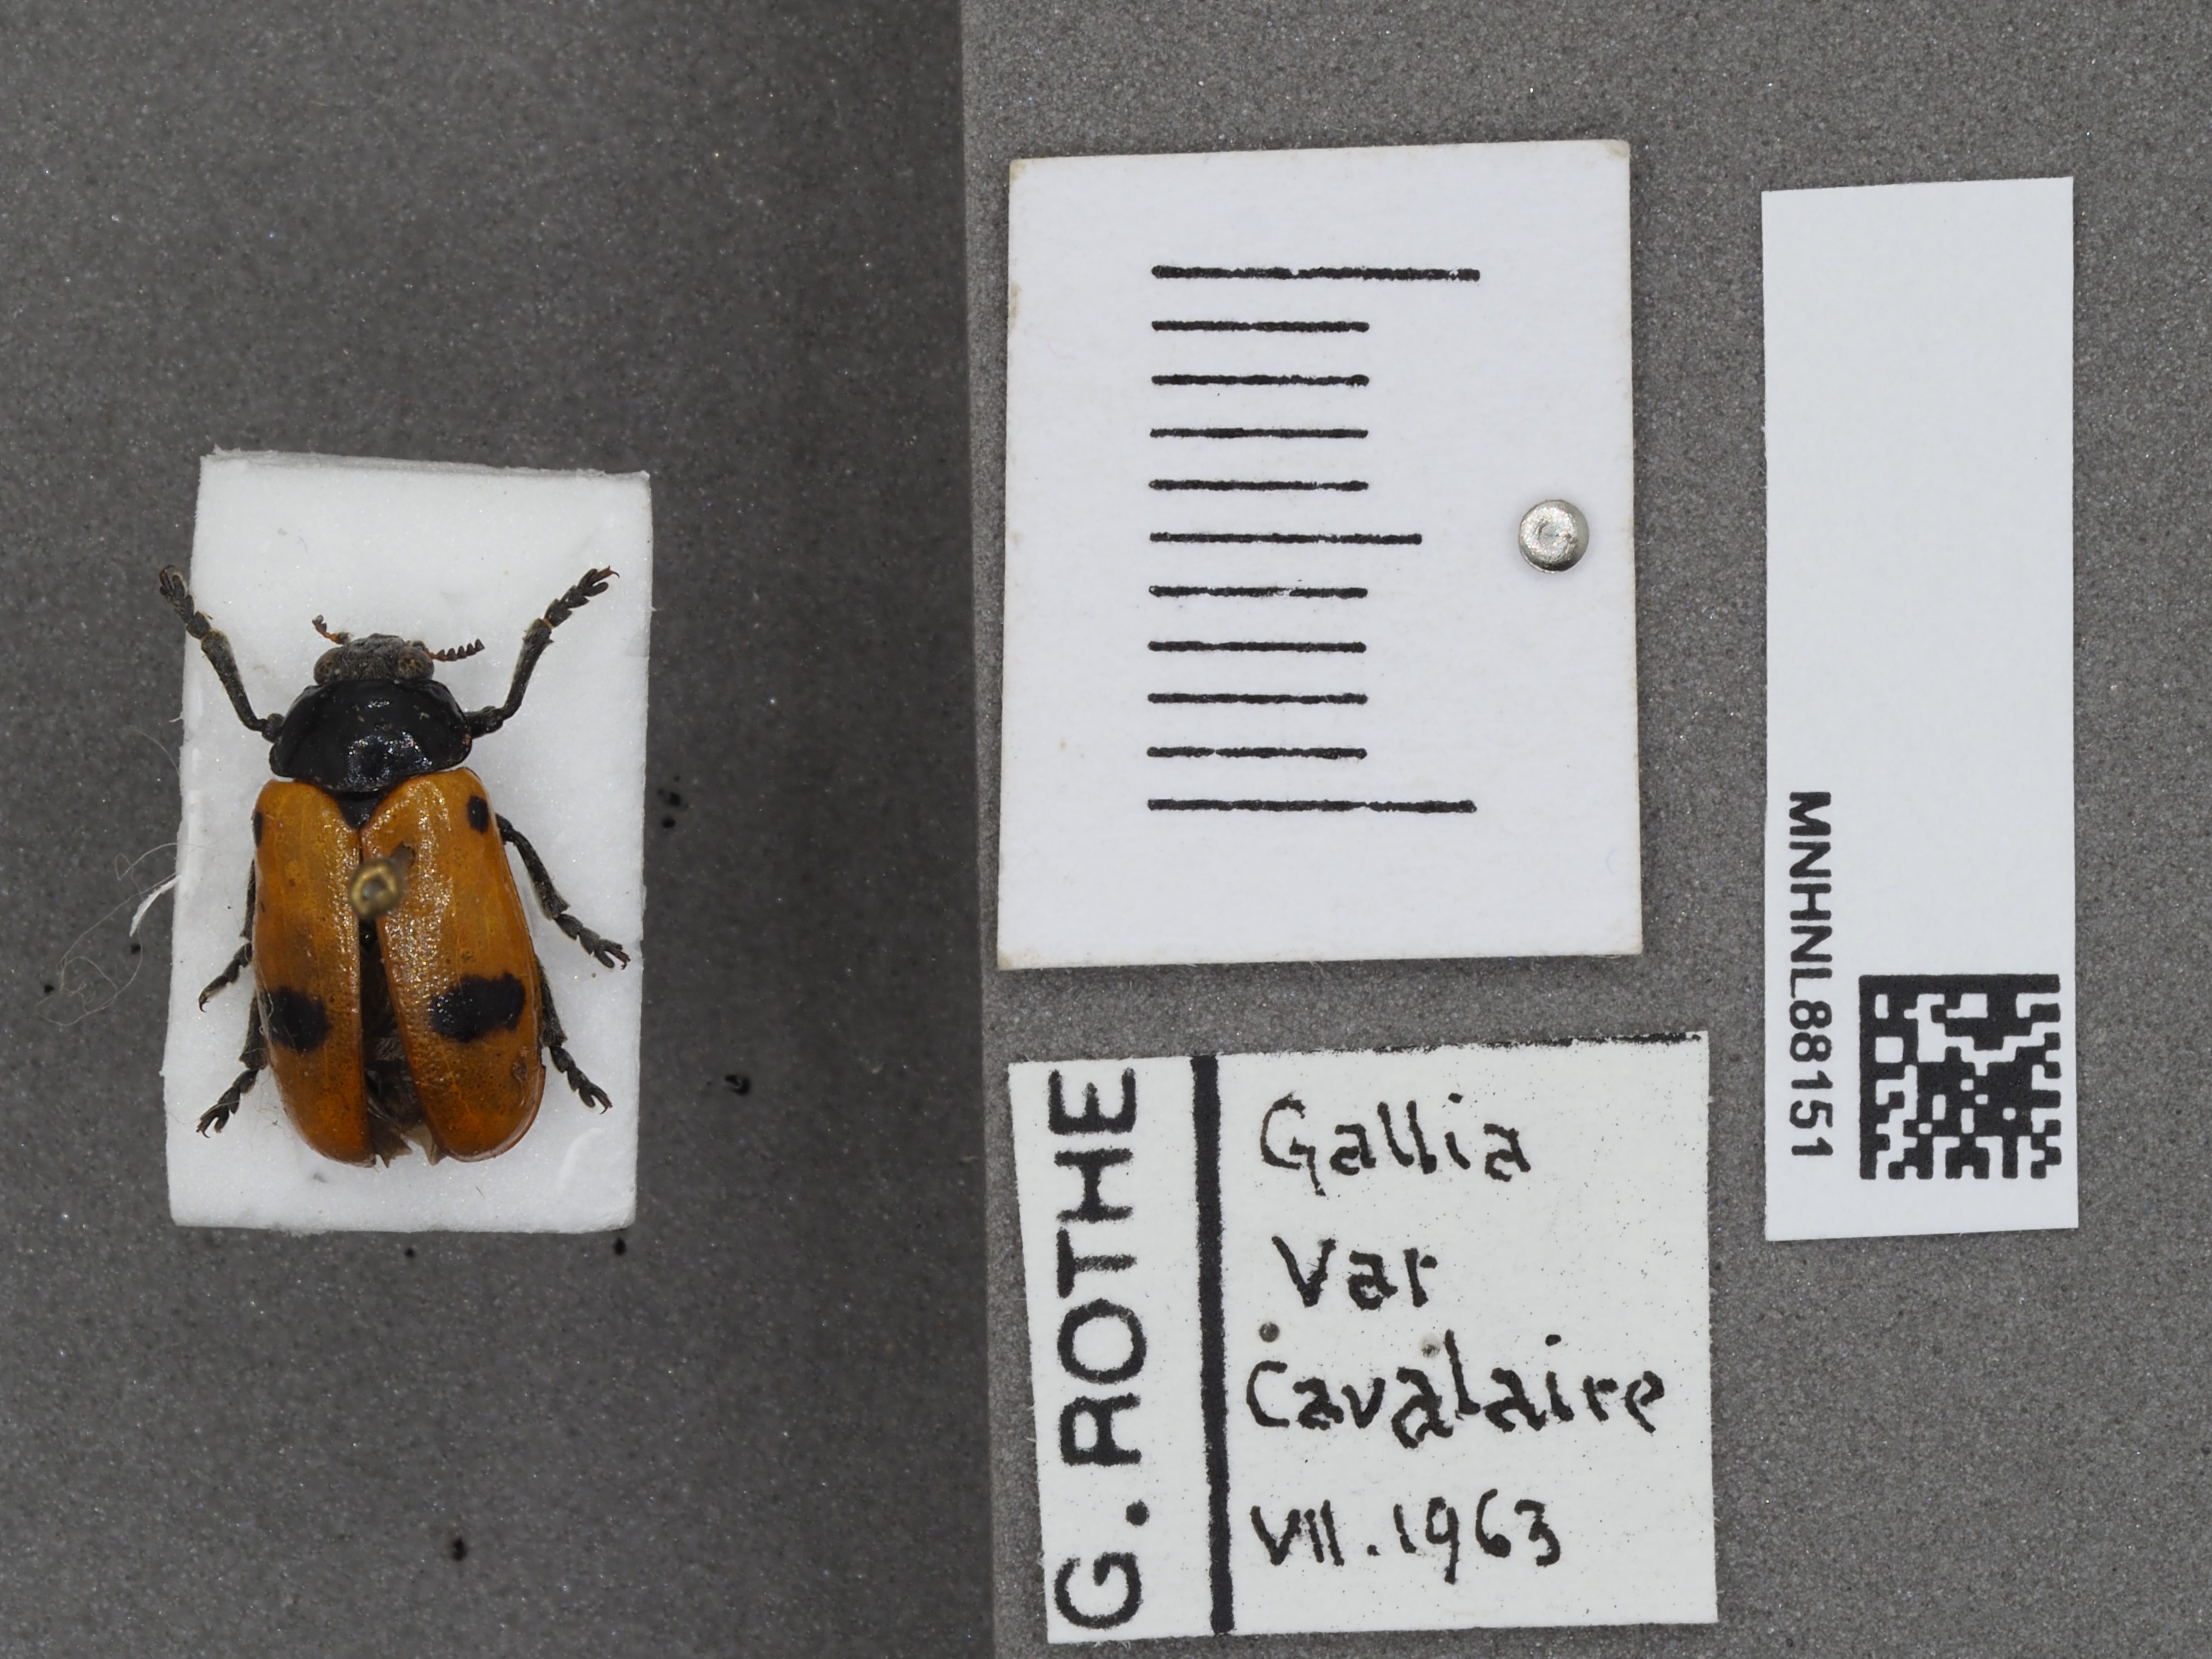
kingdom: Animalia
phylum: Arthropoda
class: Insecta
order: Coleoptera
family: Chrysomelidae
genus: Clytra
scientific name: Clytra laeviuscula
